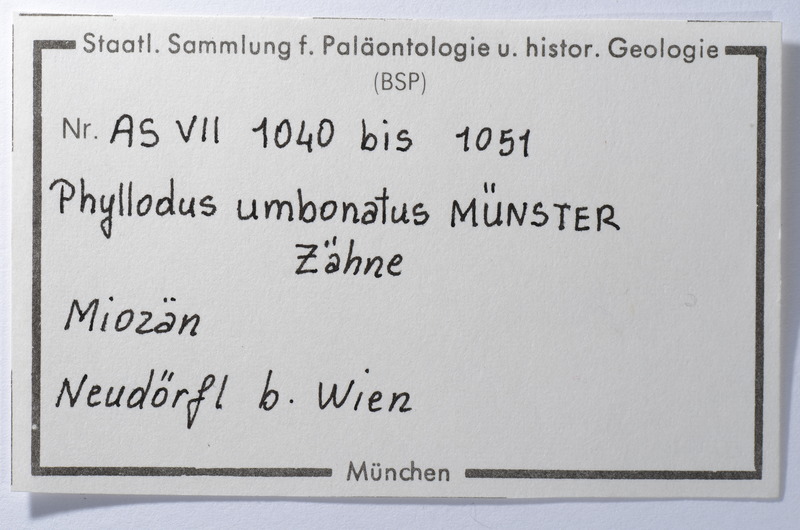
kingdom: Animalia
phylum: Chordata
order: Anguilliformes
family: Phyllodontidae
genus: Phyllodus
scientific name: Phyllodus
